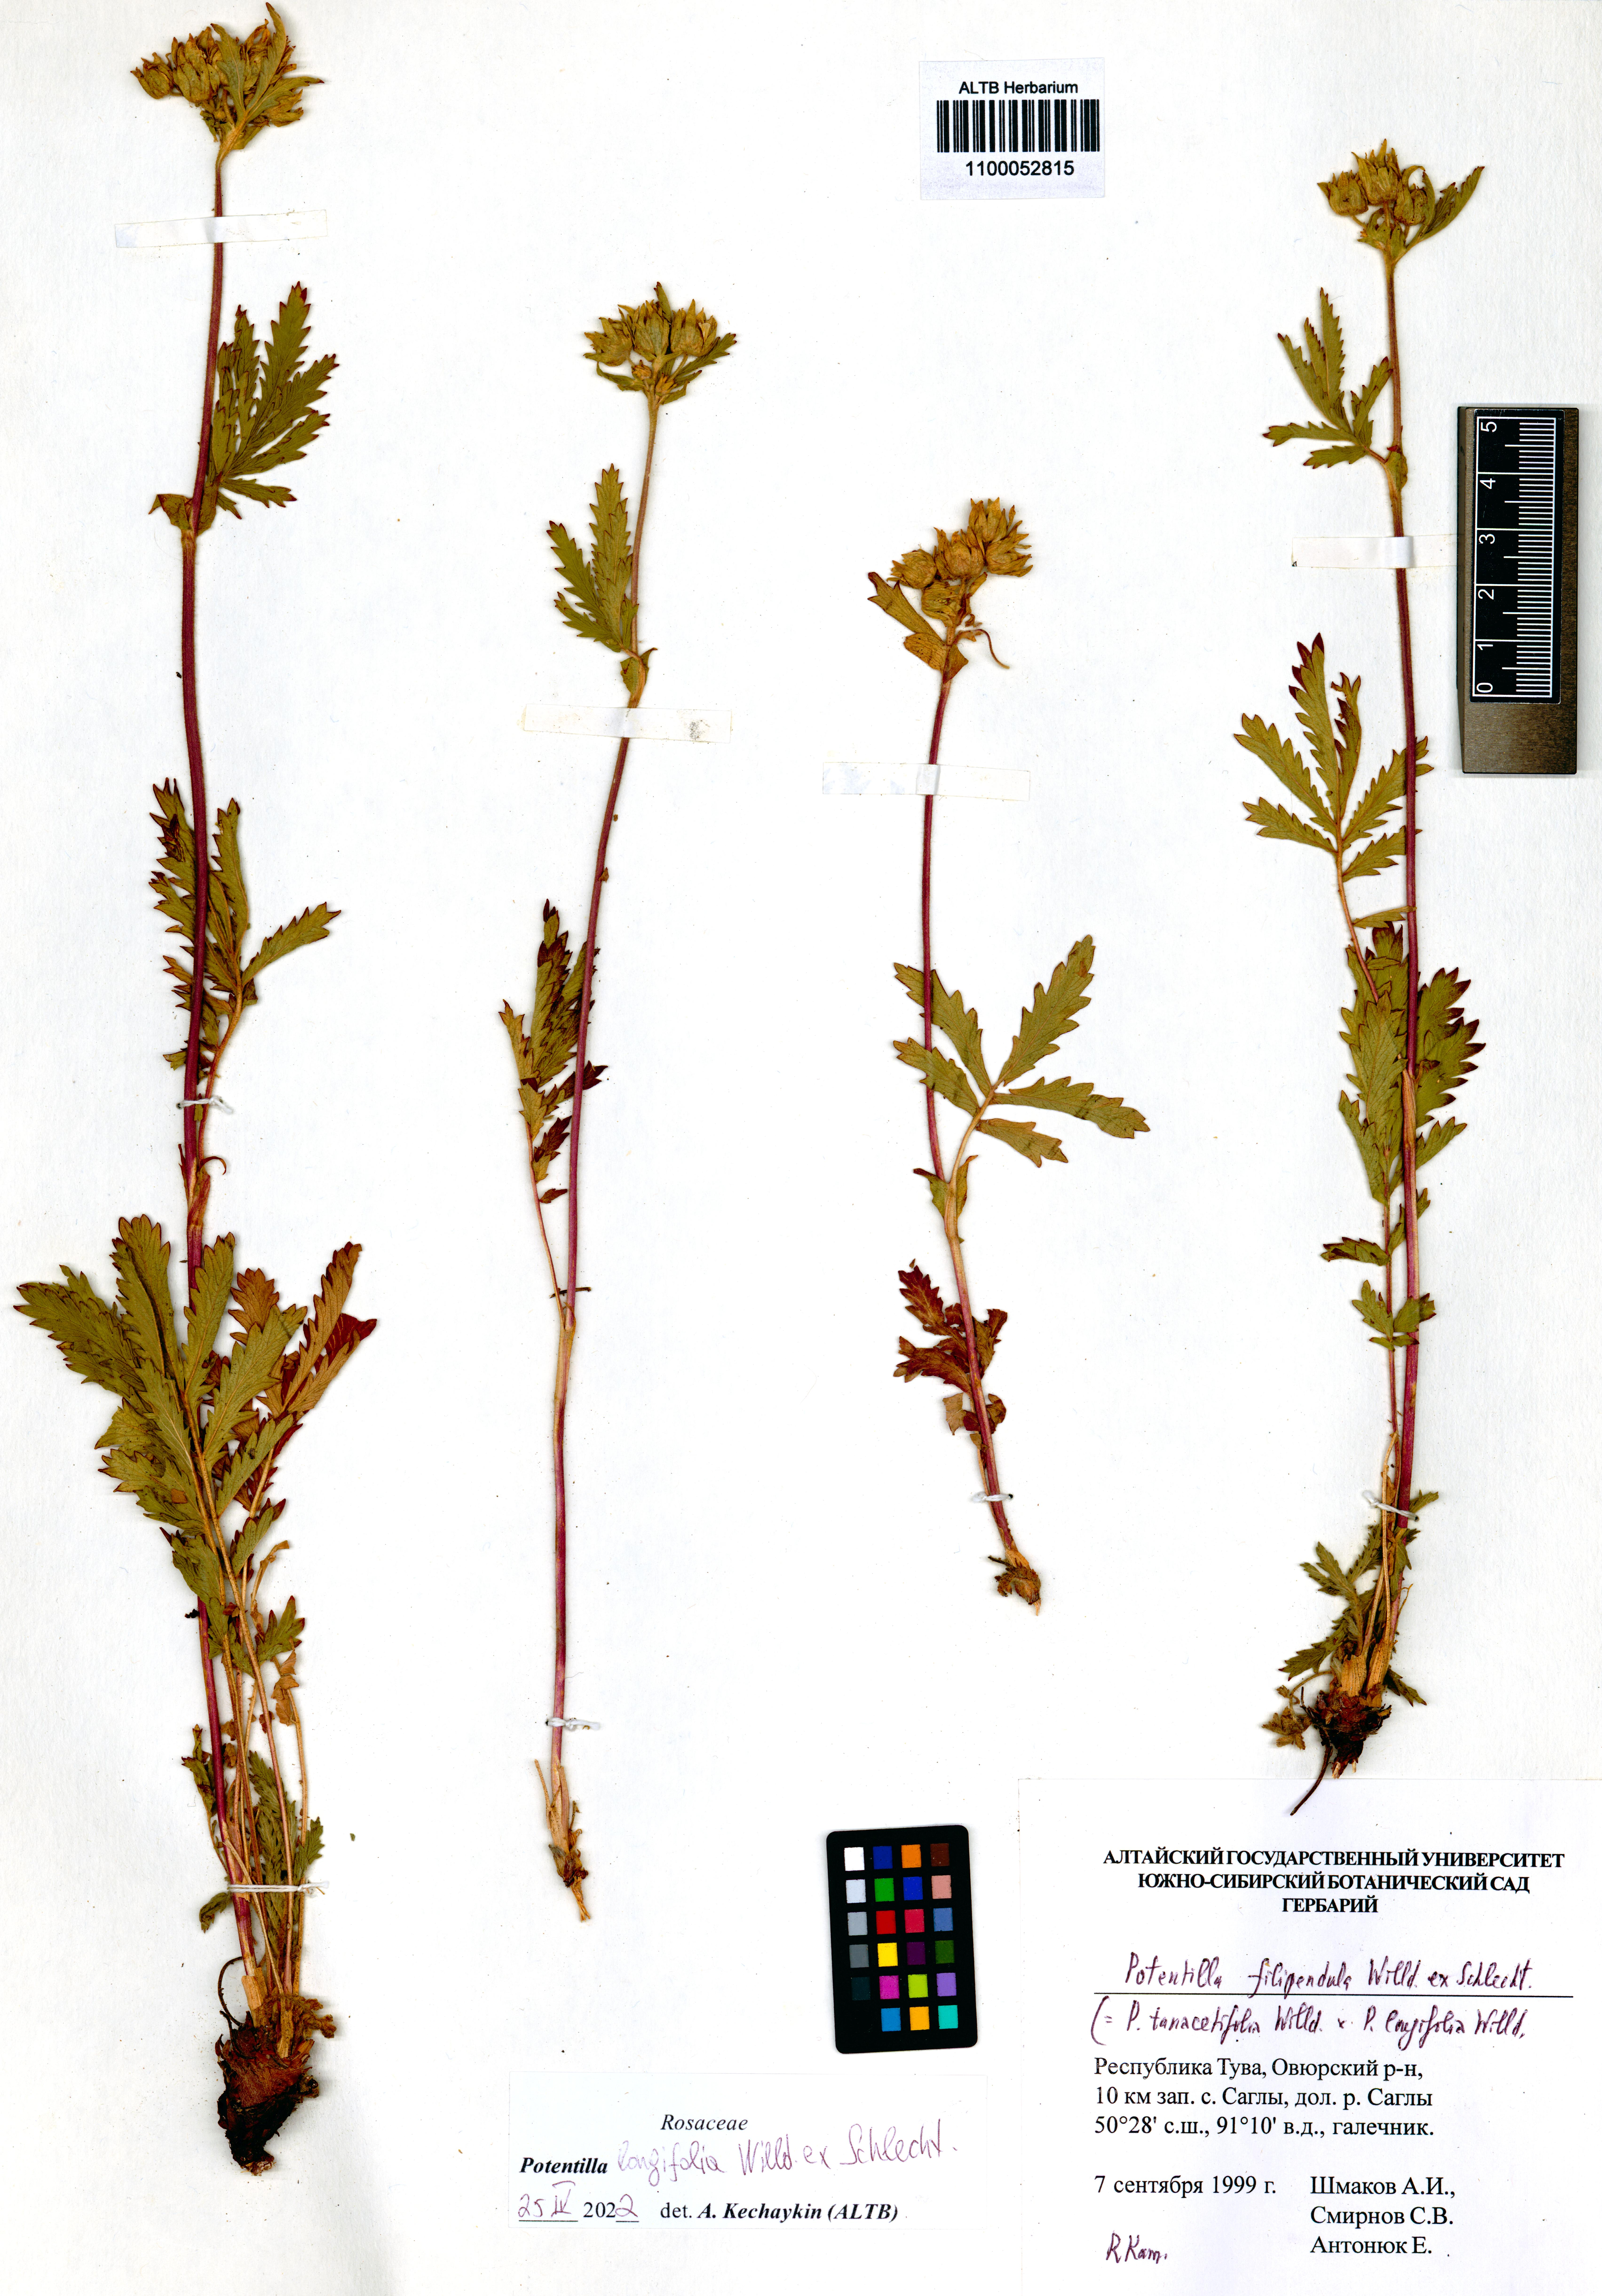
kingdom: Plantae
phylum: Tracheophyta
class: Magnoliopsida
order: Rosales
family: Rosaceae
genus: Potentilla
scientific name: Potentilla longifolia
